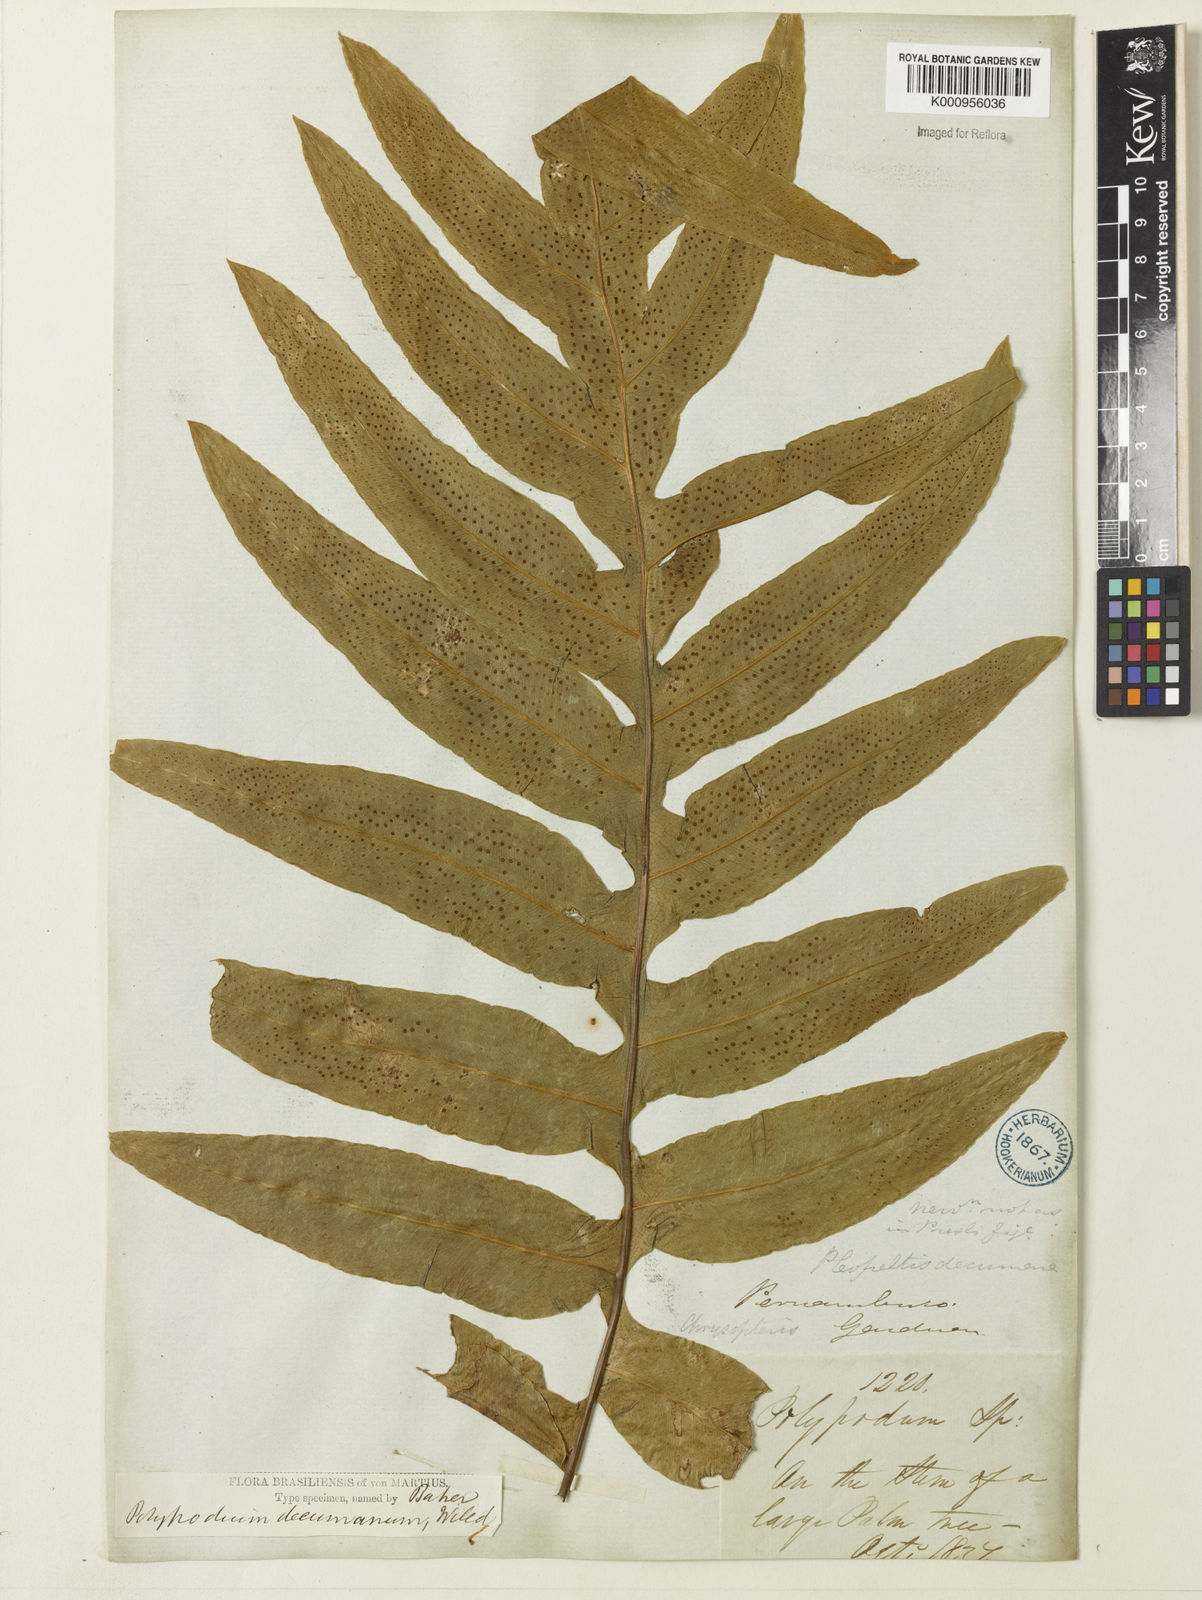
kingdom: Plantae
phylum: Tracheophyta
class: Polypodiopsida
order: Polypodiales
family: Polypodiaceae
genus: Phlebodium
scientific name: Phlebodium decumanum
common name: Golden polypod
